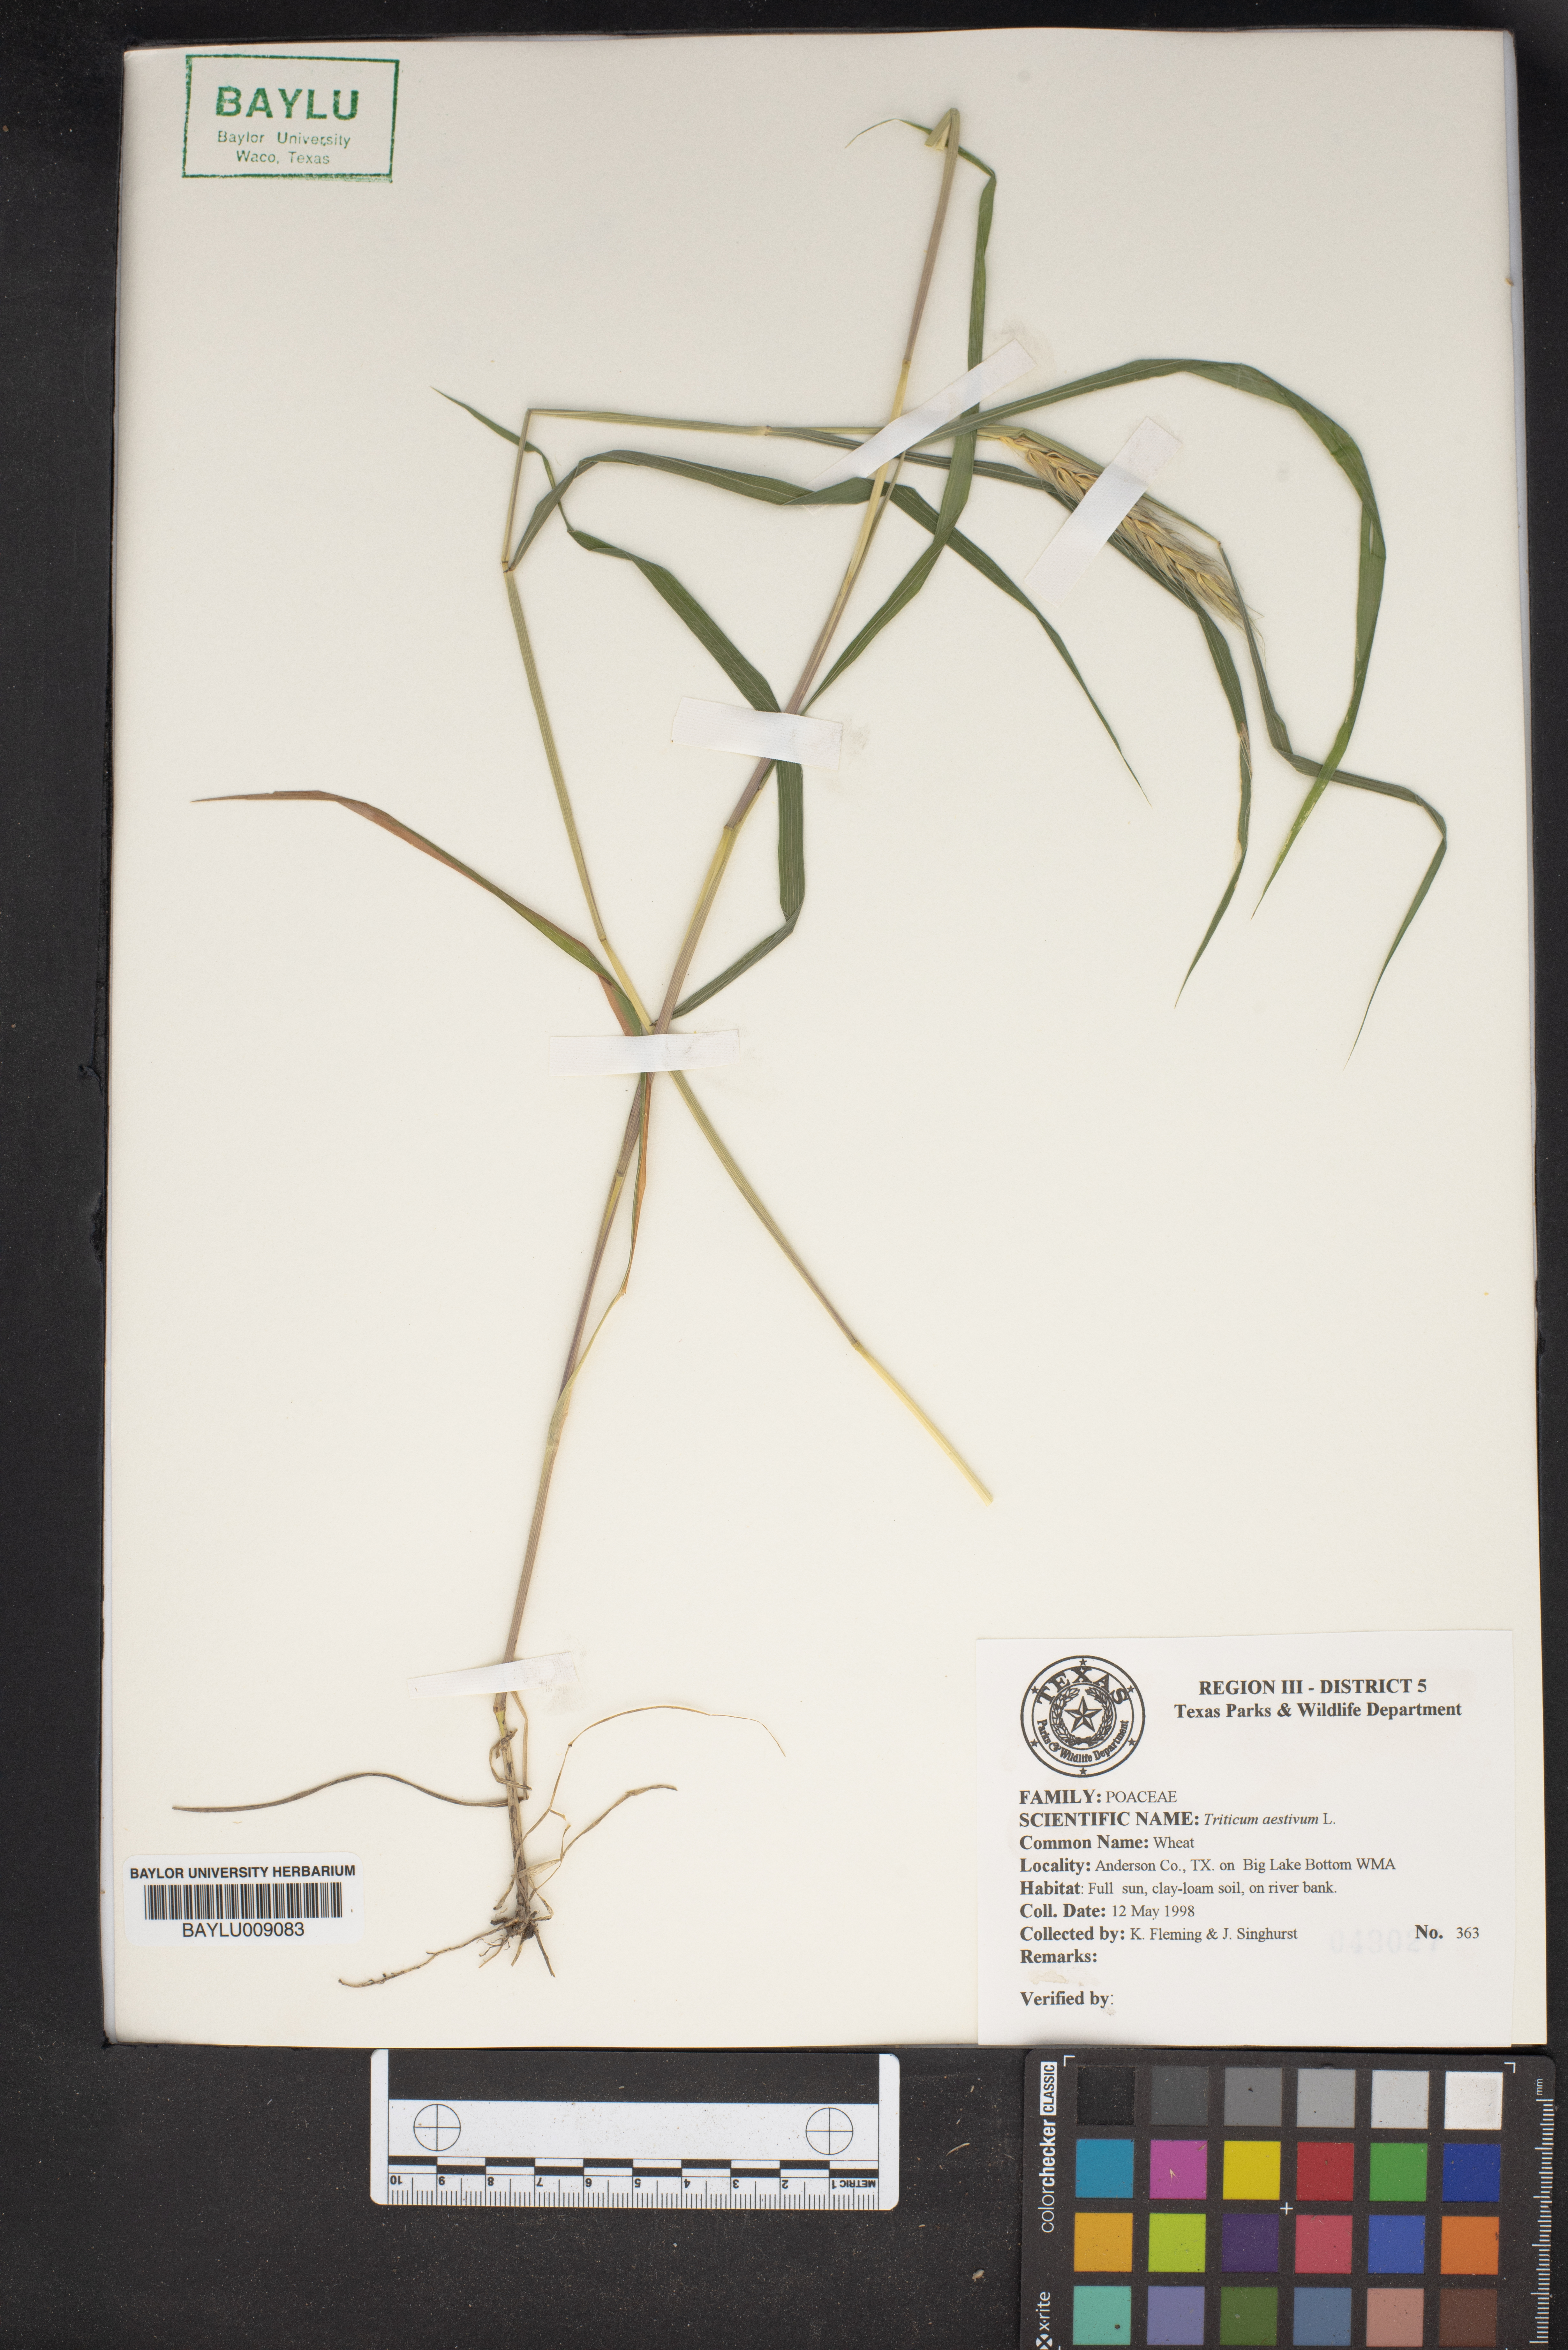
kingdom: Plantae
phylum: Tracheophyta
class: Liliopsida
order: Poales
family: Poaceae
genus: Triticum
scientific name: Triticum aestivum
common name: Common wheat
